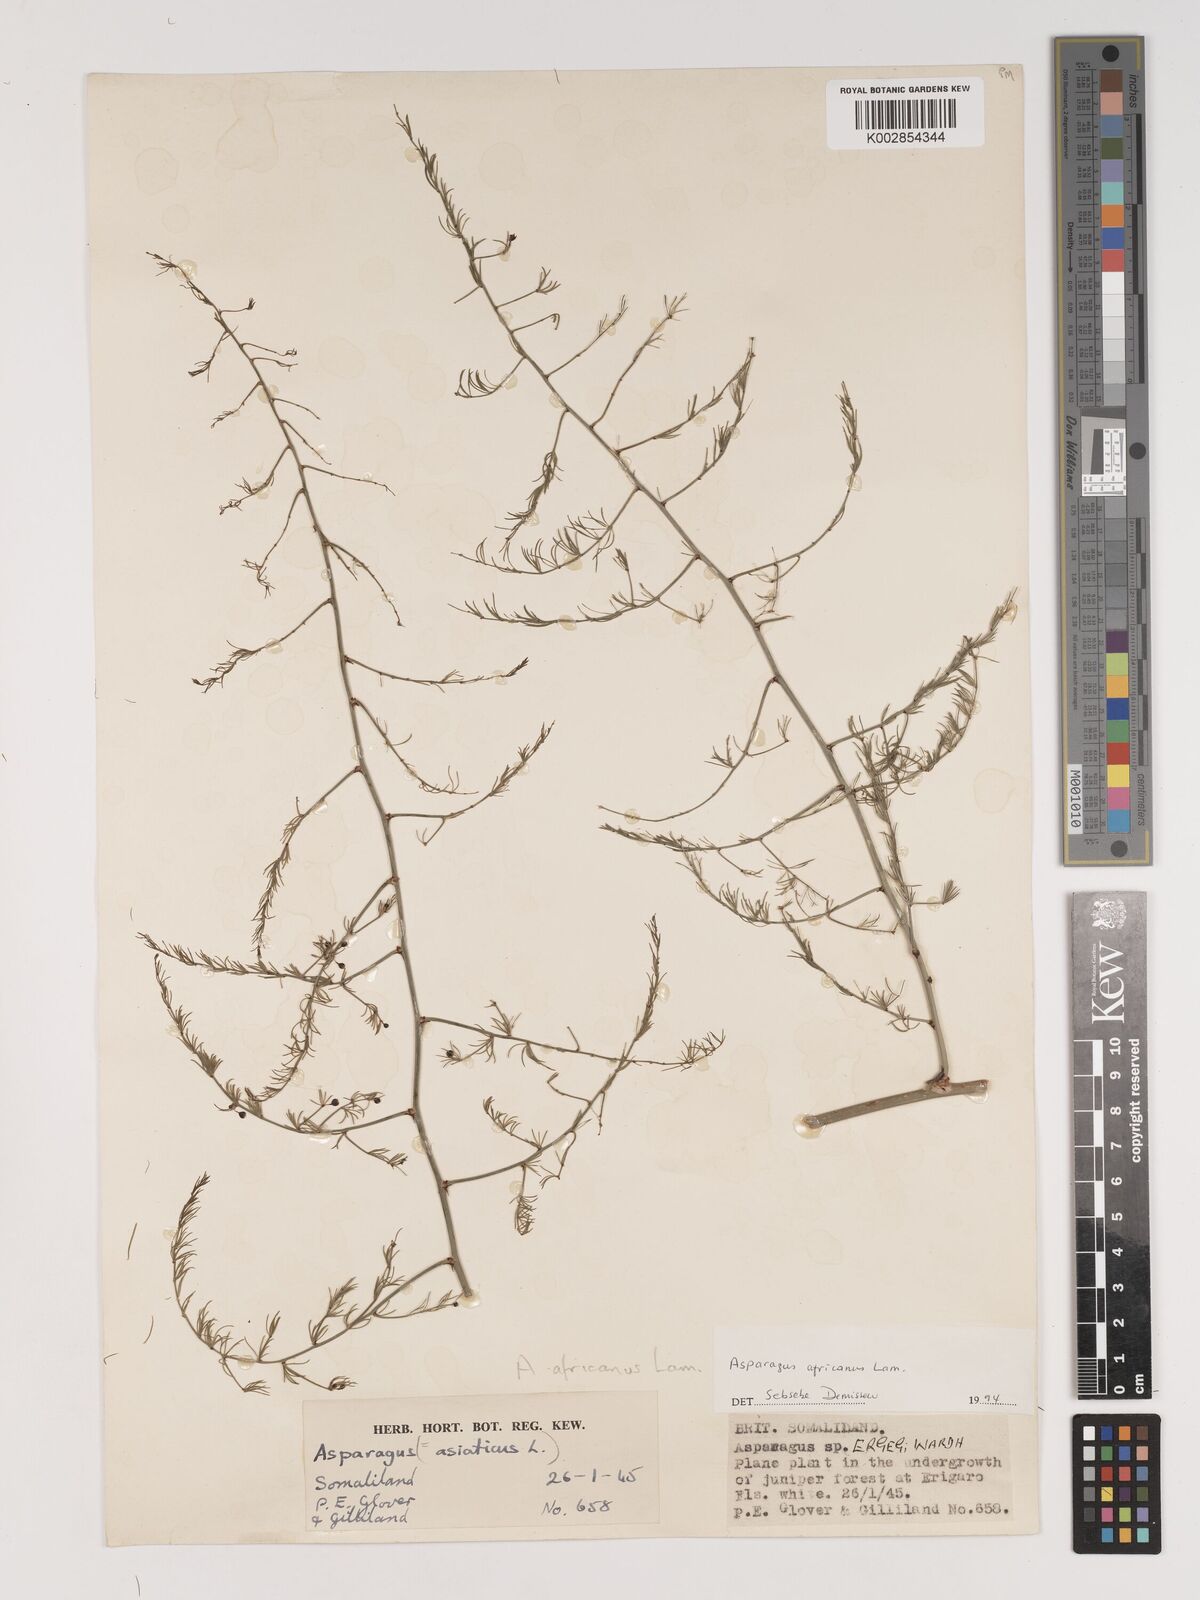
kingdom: Plantae
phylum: Tracheophyta
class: Liliopsida
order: Asparagales
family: Asparagaceae
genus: Asparagus
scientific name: Asparagus africanus
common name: Asparagus-fern
